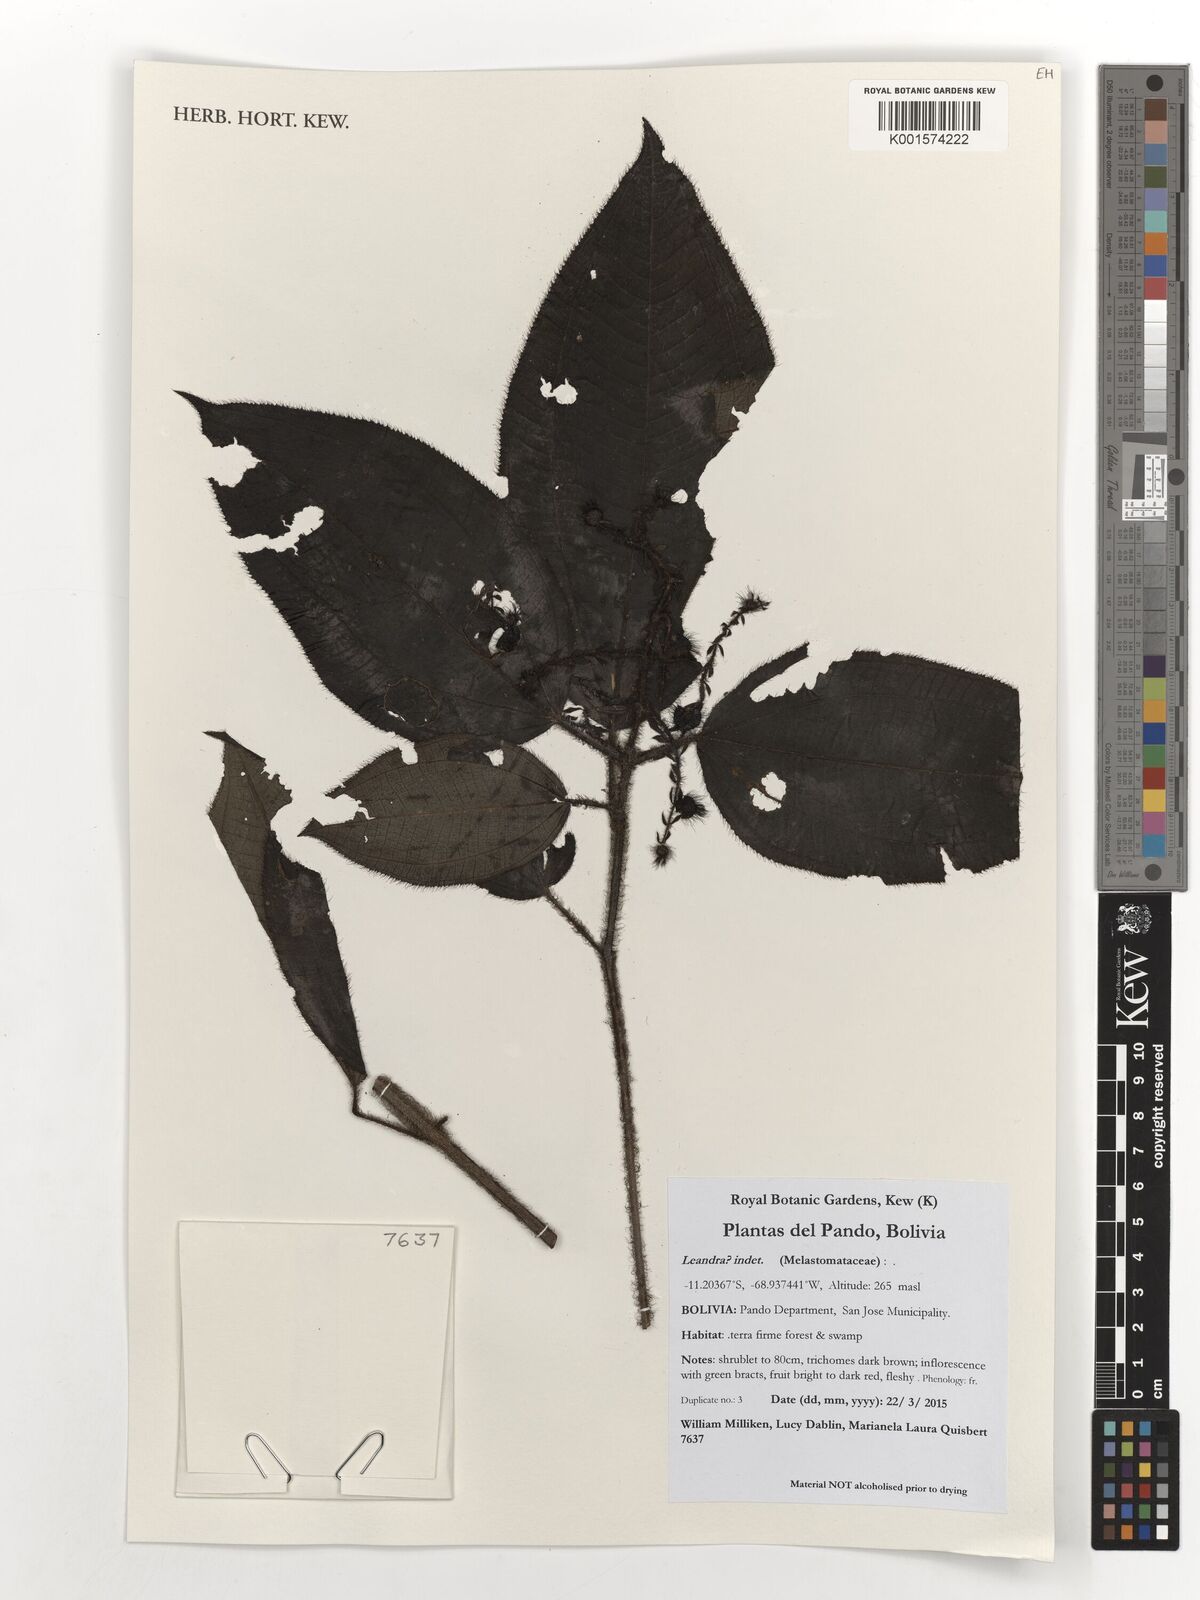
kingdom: Plantae
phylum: Tracheophyta
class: Magnoliopsida
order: Myrtales
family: Melastomataceae
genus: Miconia
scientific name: Miconia
